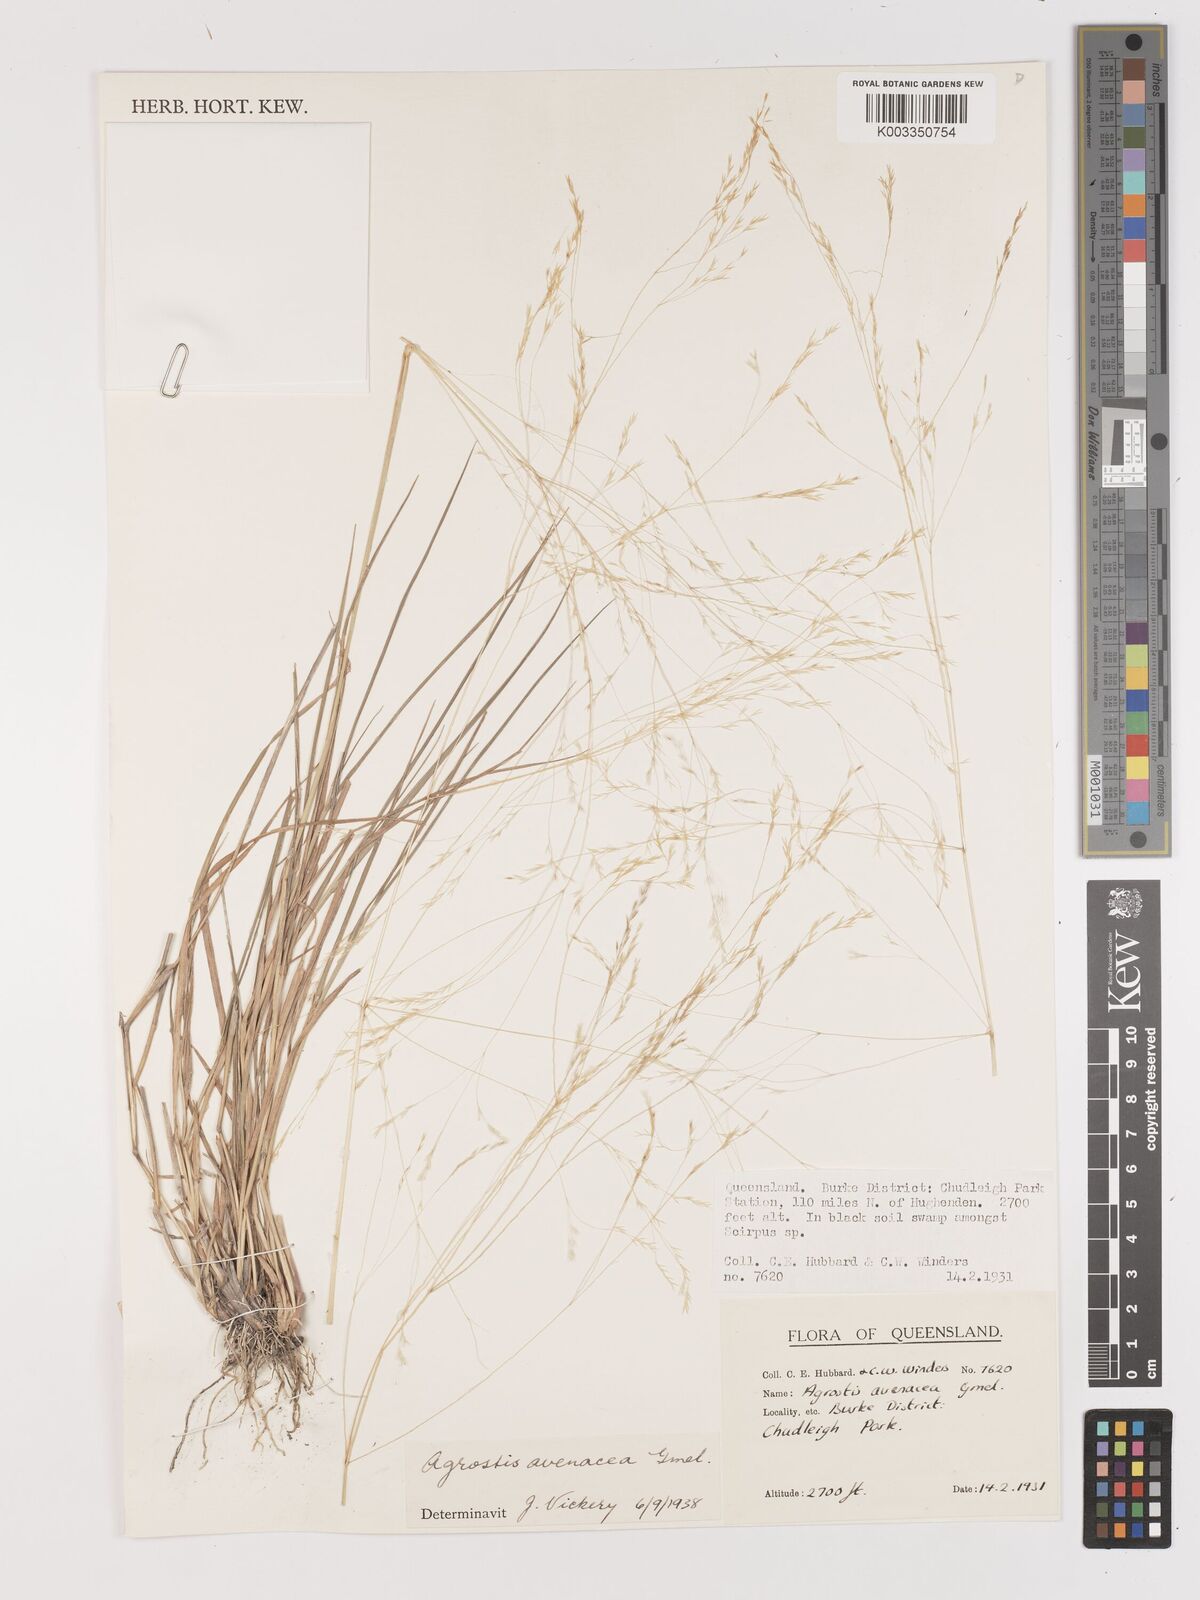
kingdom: Plantae
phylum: Tracheophyta
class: Liliopsida
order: Poales
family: Poaceae
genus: Lachnagrostis
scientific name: Lachnagrostis filiformis
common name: Bentgrass
